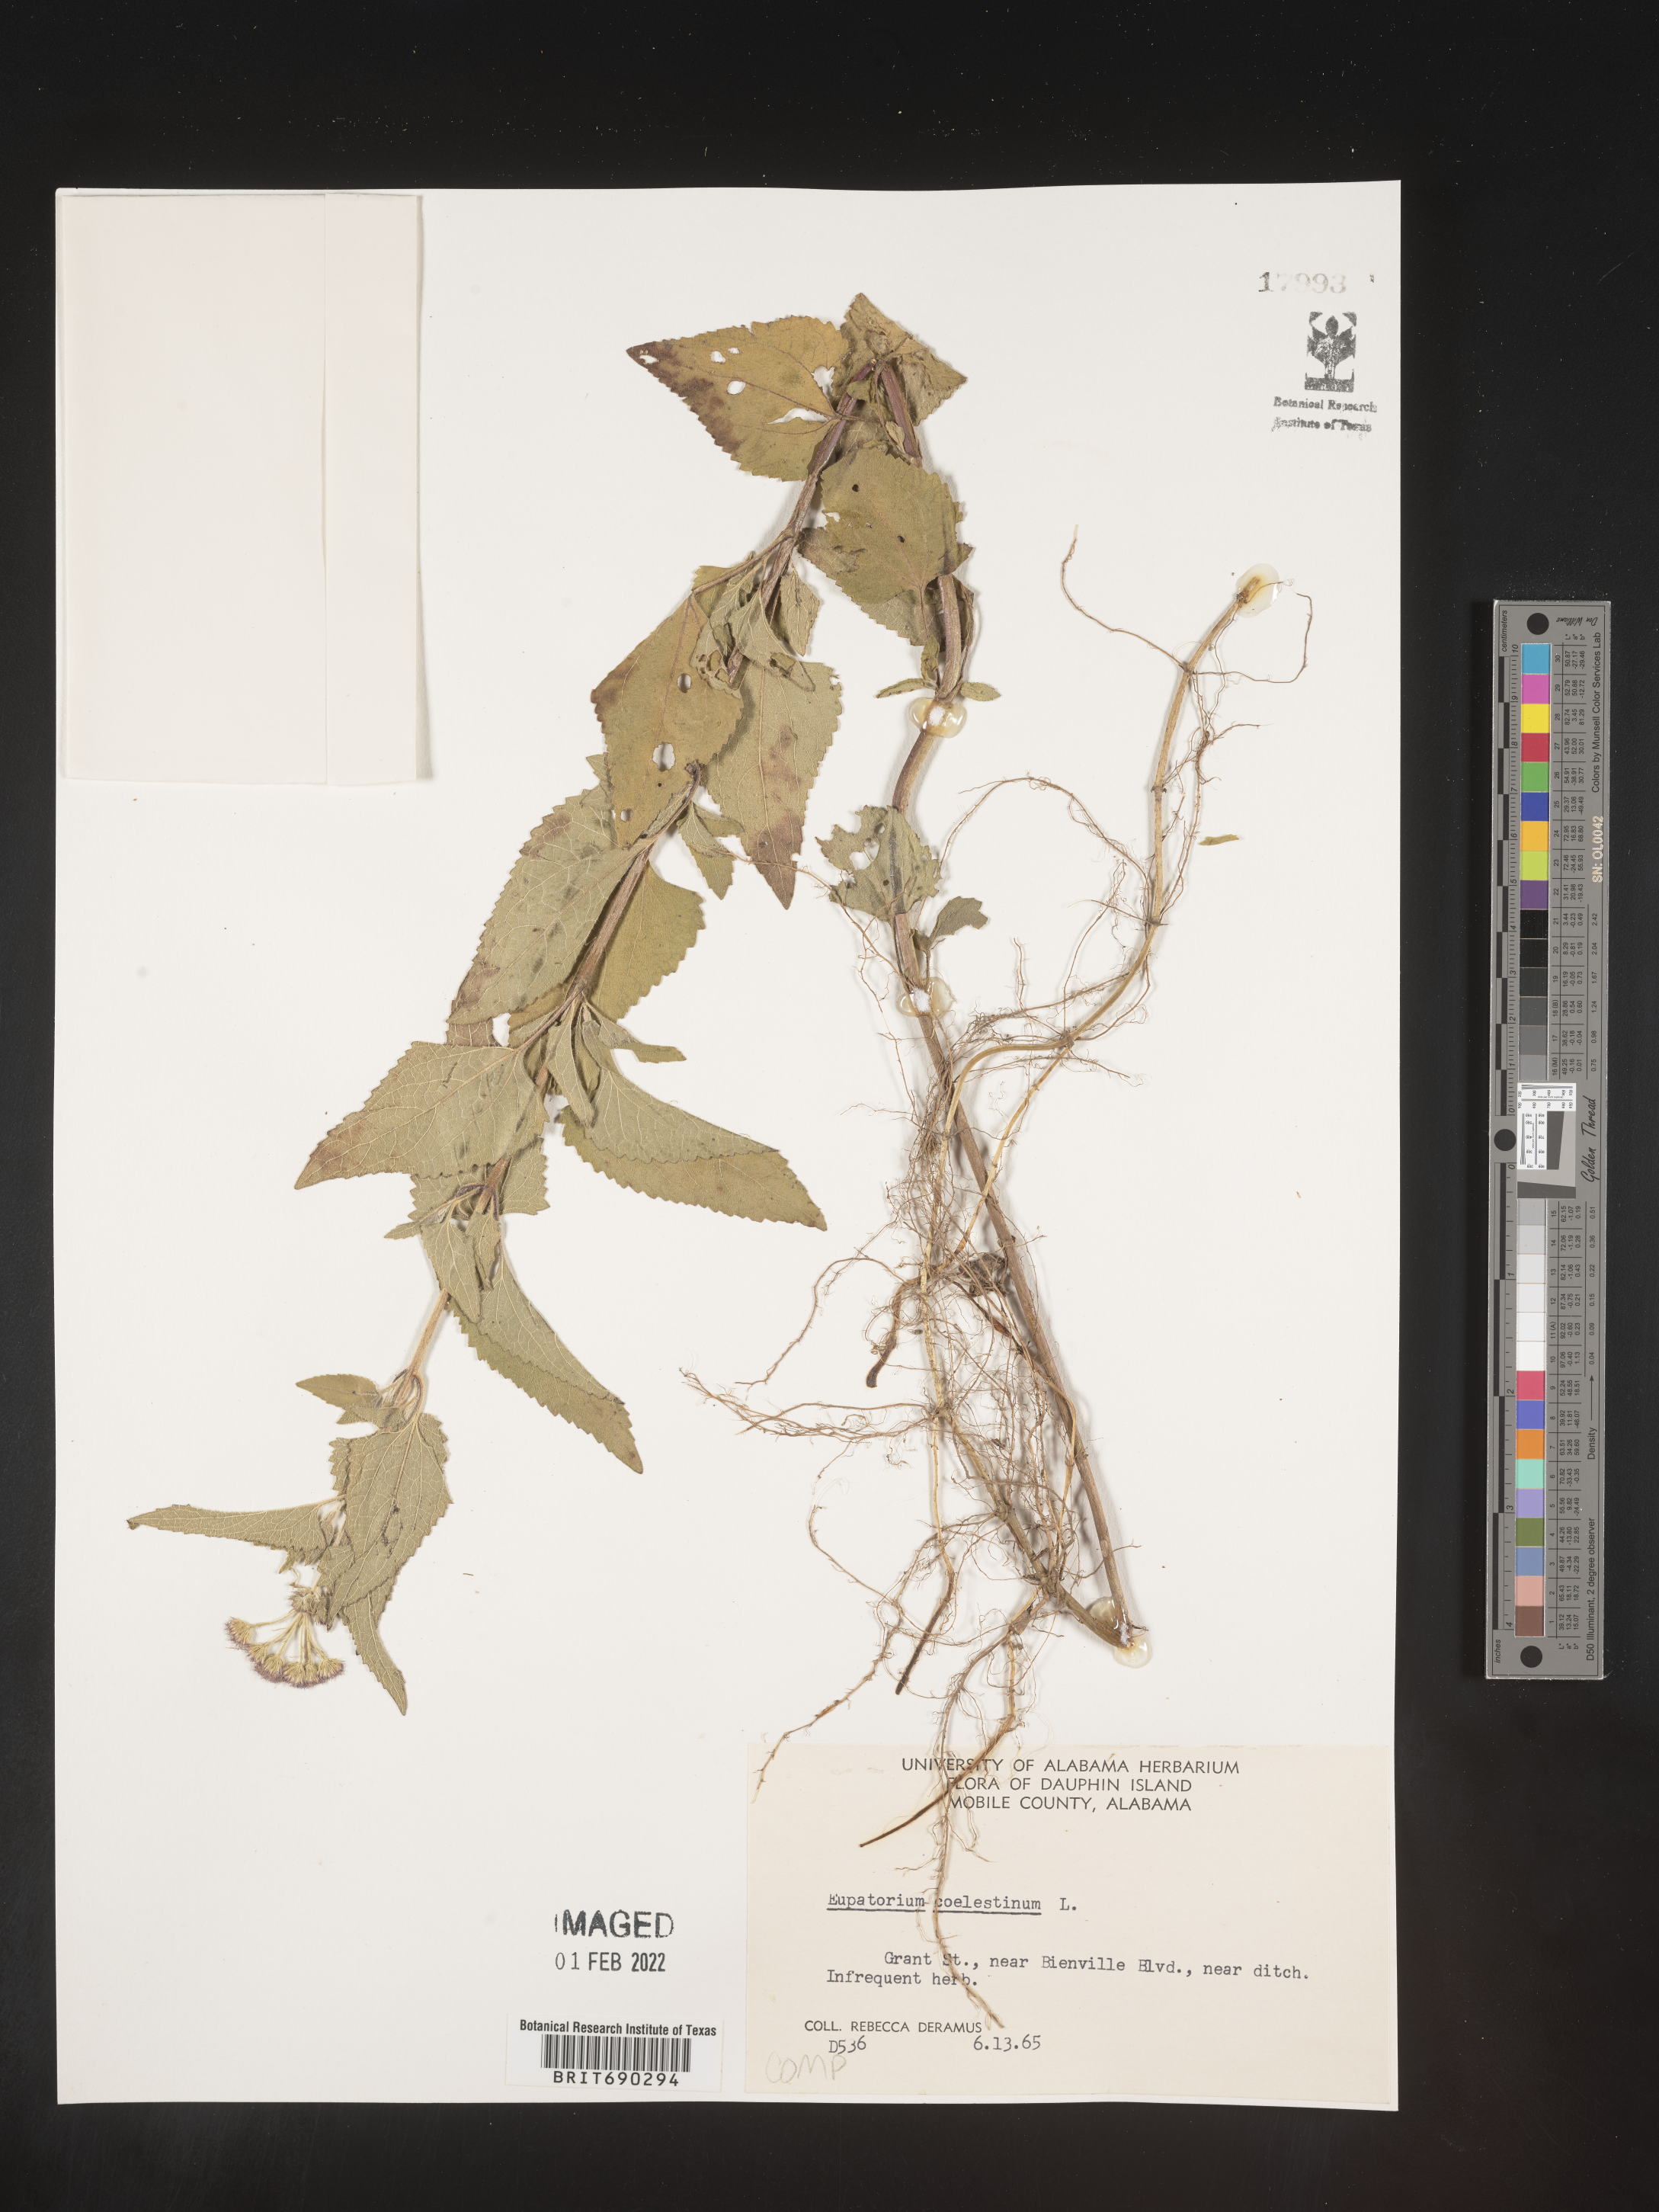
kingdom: Plantae
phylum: Tracheophyta
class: Magnoliopsida
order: Asterales
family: Asteraceae
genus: Conoclinium
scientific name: Conoclinium coelestinum
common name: Blue mistflower
